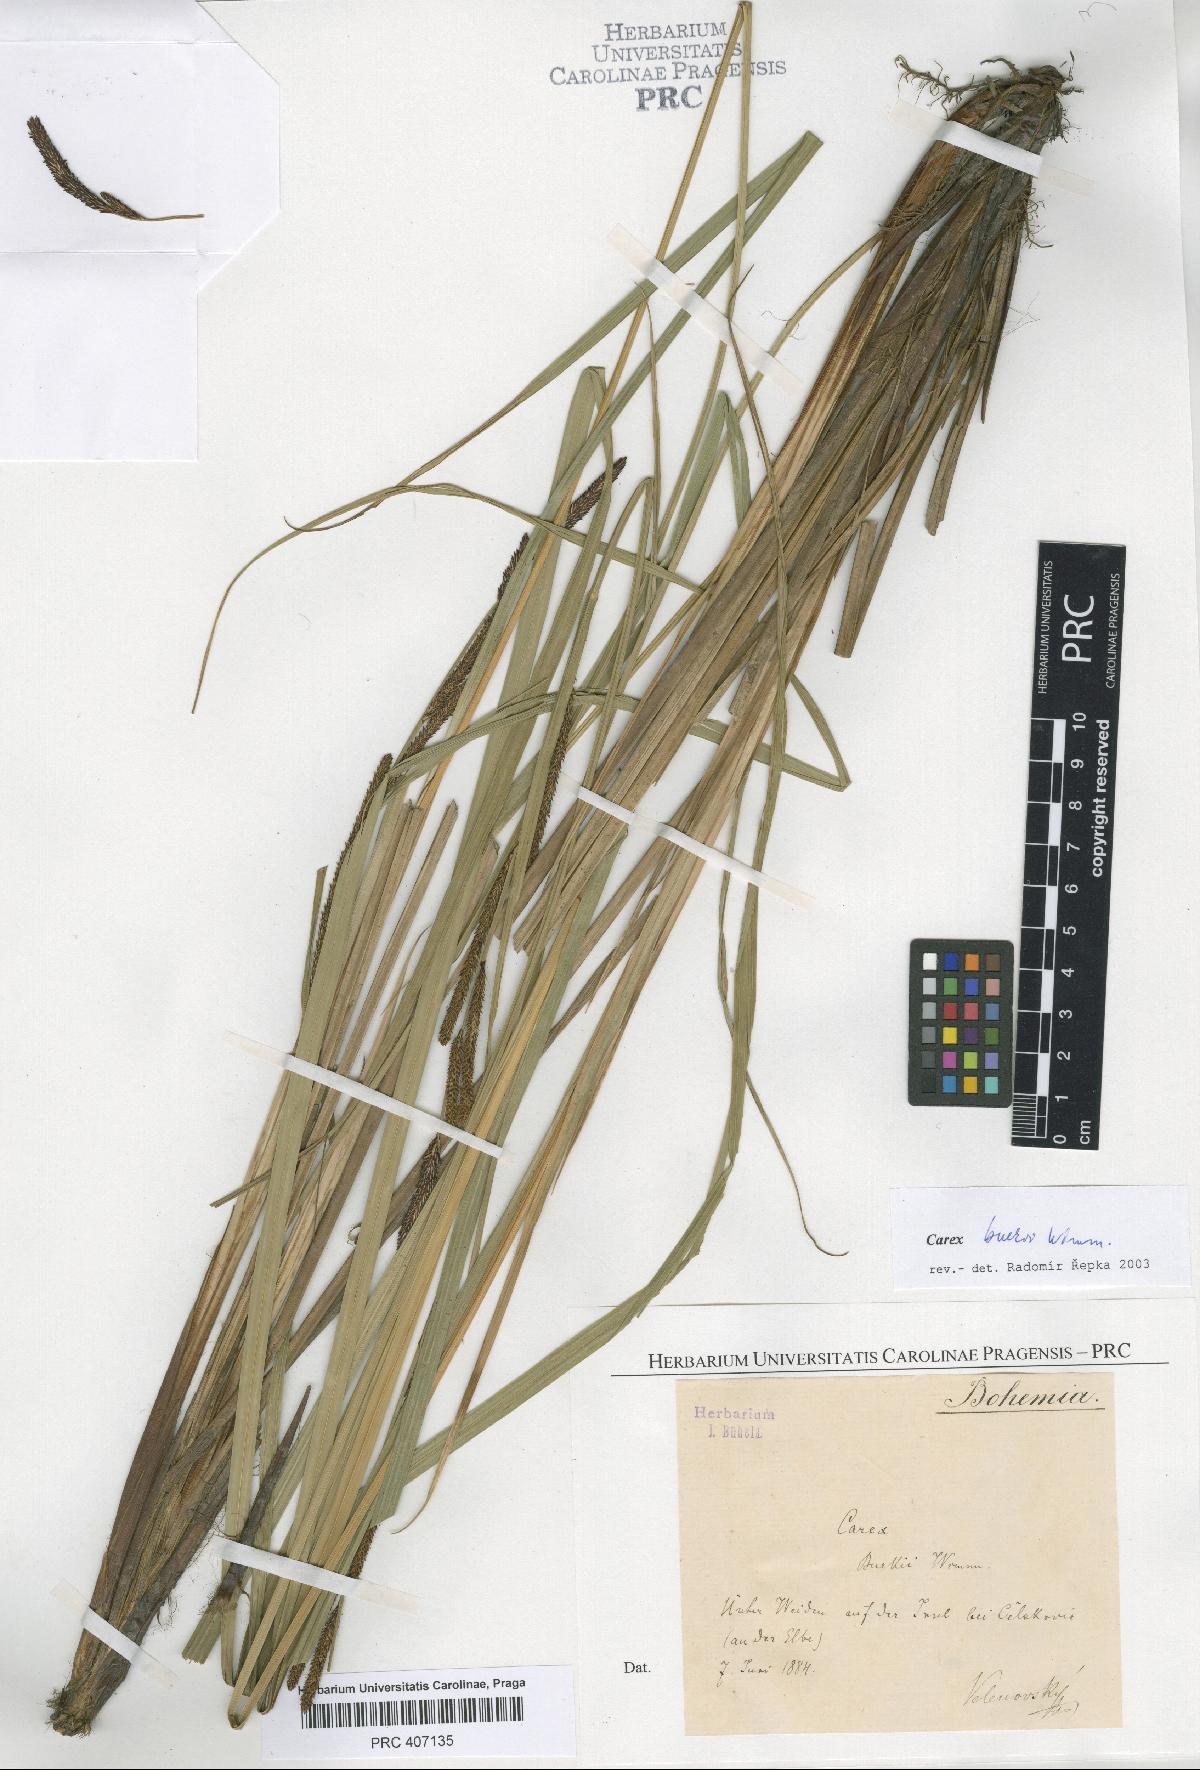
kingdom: Plantae
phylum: Tracheophyta
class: Liliopsida
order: Poales
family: Cyperaceae
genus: Carex
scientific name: Carex buekii
